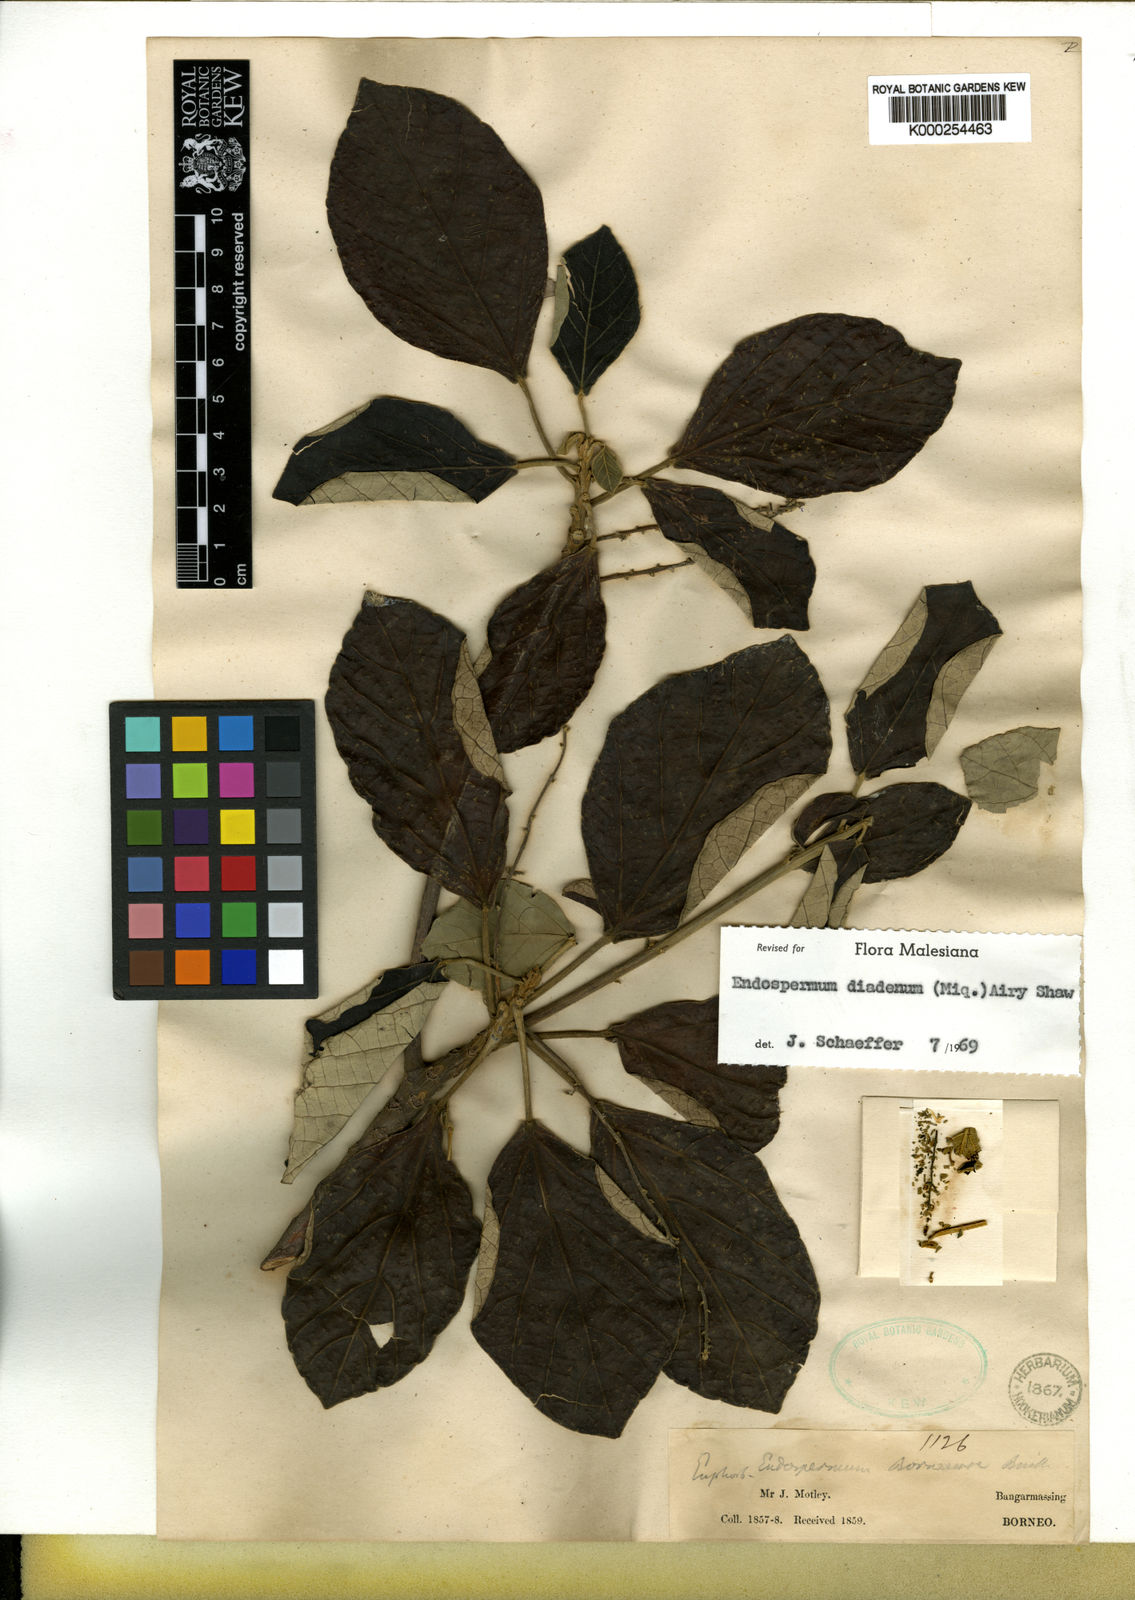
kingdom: Plantae
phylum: Tracheophyta
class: Magnoliopsida
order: Malpighiales
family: Euphorbiaceae
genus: Endospermum
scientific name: Endospermum diadenum
